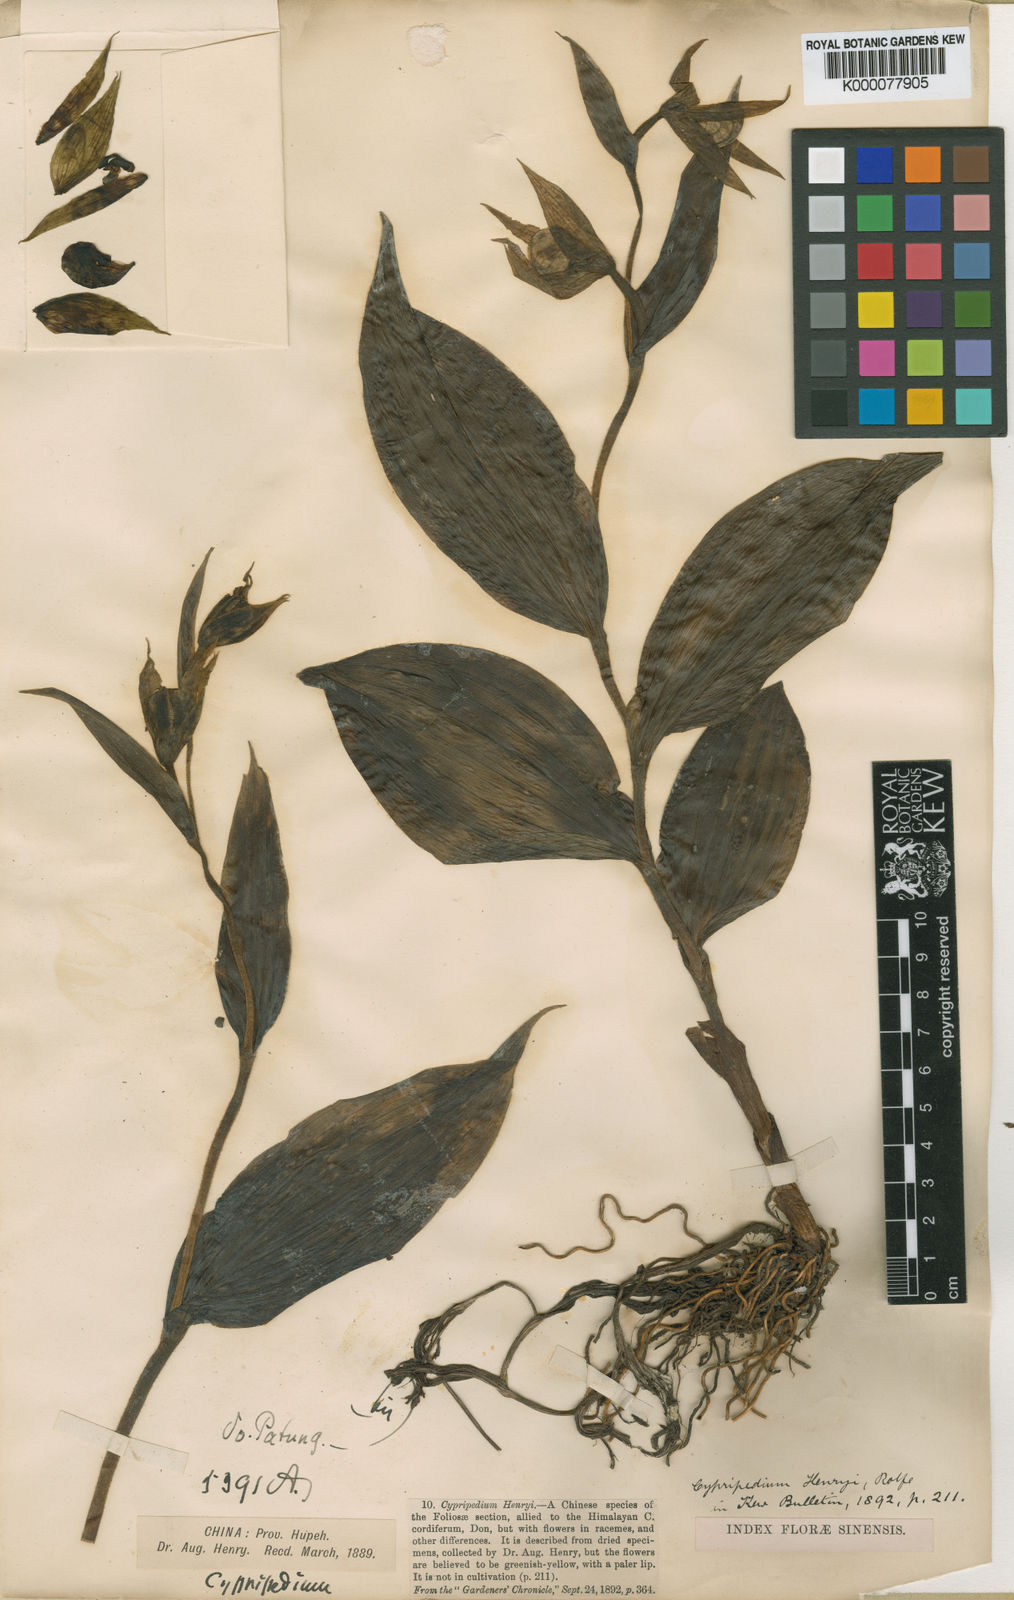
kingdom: Plantae
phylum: Tracheophyta
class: Liliopsida
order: Asparagales
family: Orchidaceae
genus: Cypripedium
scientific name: Cypripedium henryi
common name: Henry's cypripedium
